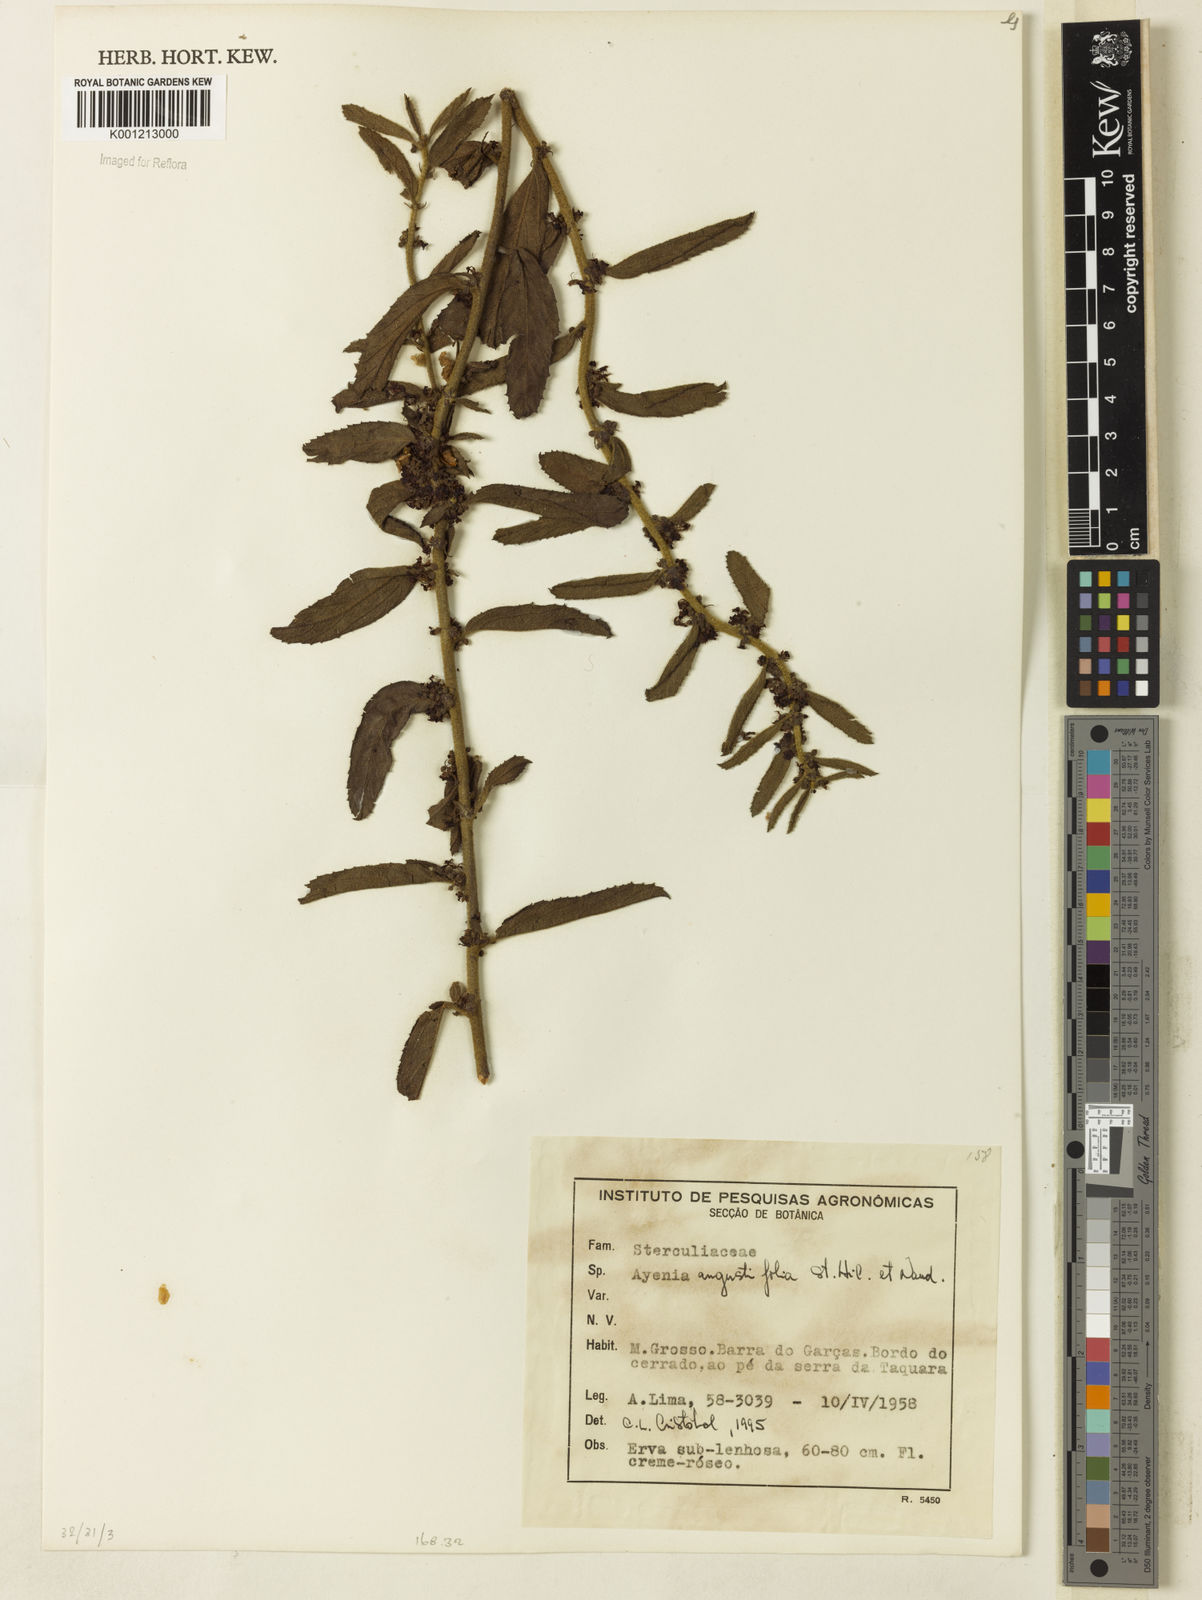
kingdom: Plantae
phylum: Tracheophyta
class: Magnoliopsida
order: Malvales
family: Malvaceae
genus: Ayenia
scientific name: Ayenia angustifolia
